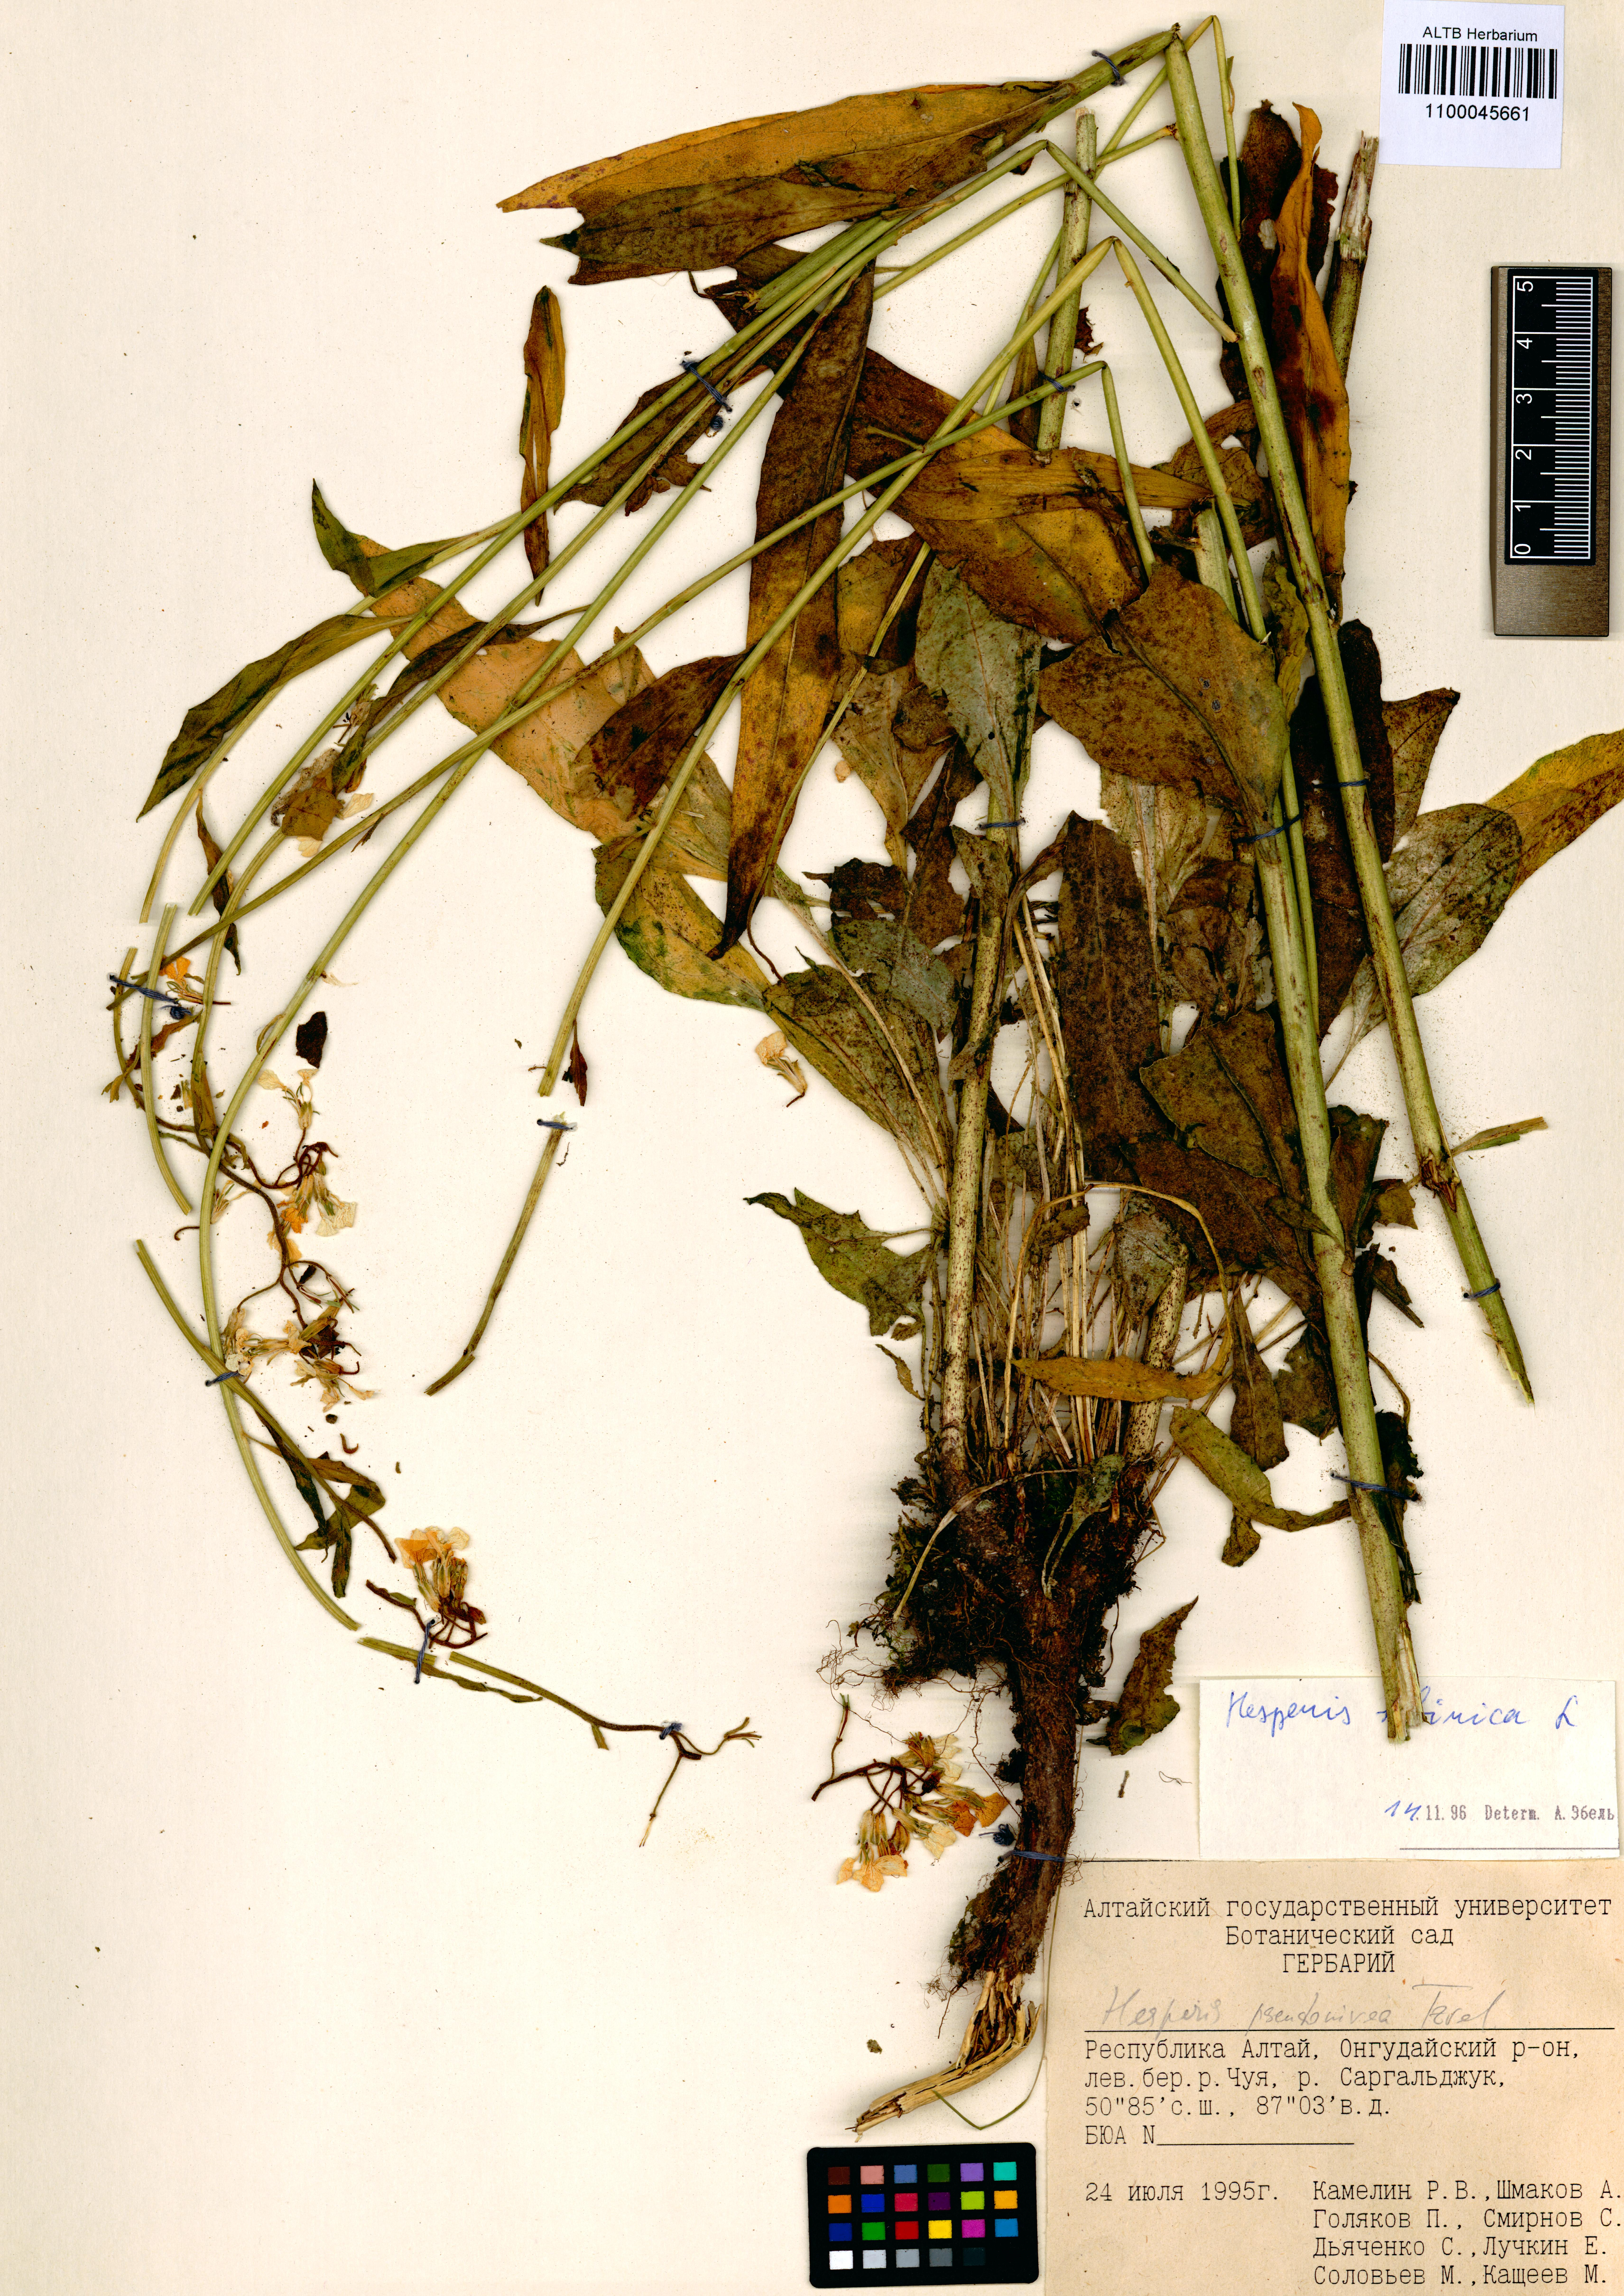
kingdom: Plantae
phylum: Tracheophyta
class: Magnoliopsida
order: Brassicales
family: Brassicaceae
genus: Hesperis
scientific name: Hesperis sibirica
